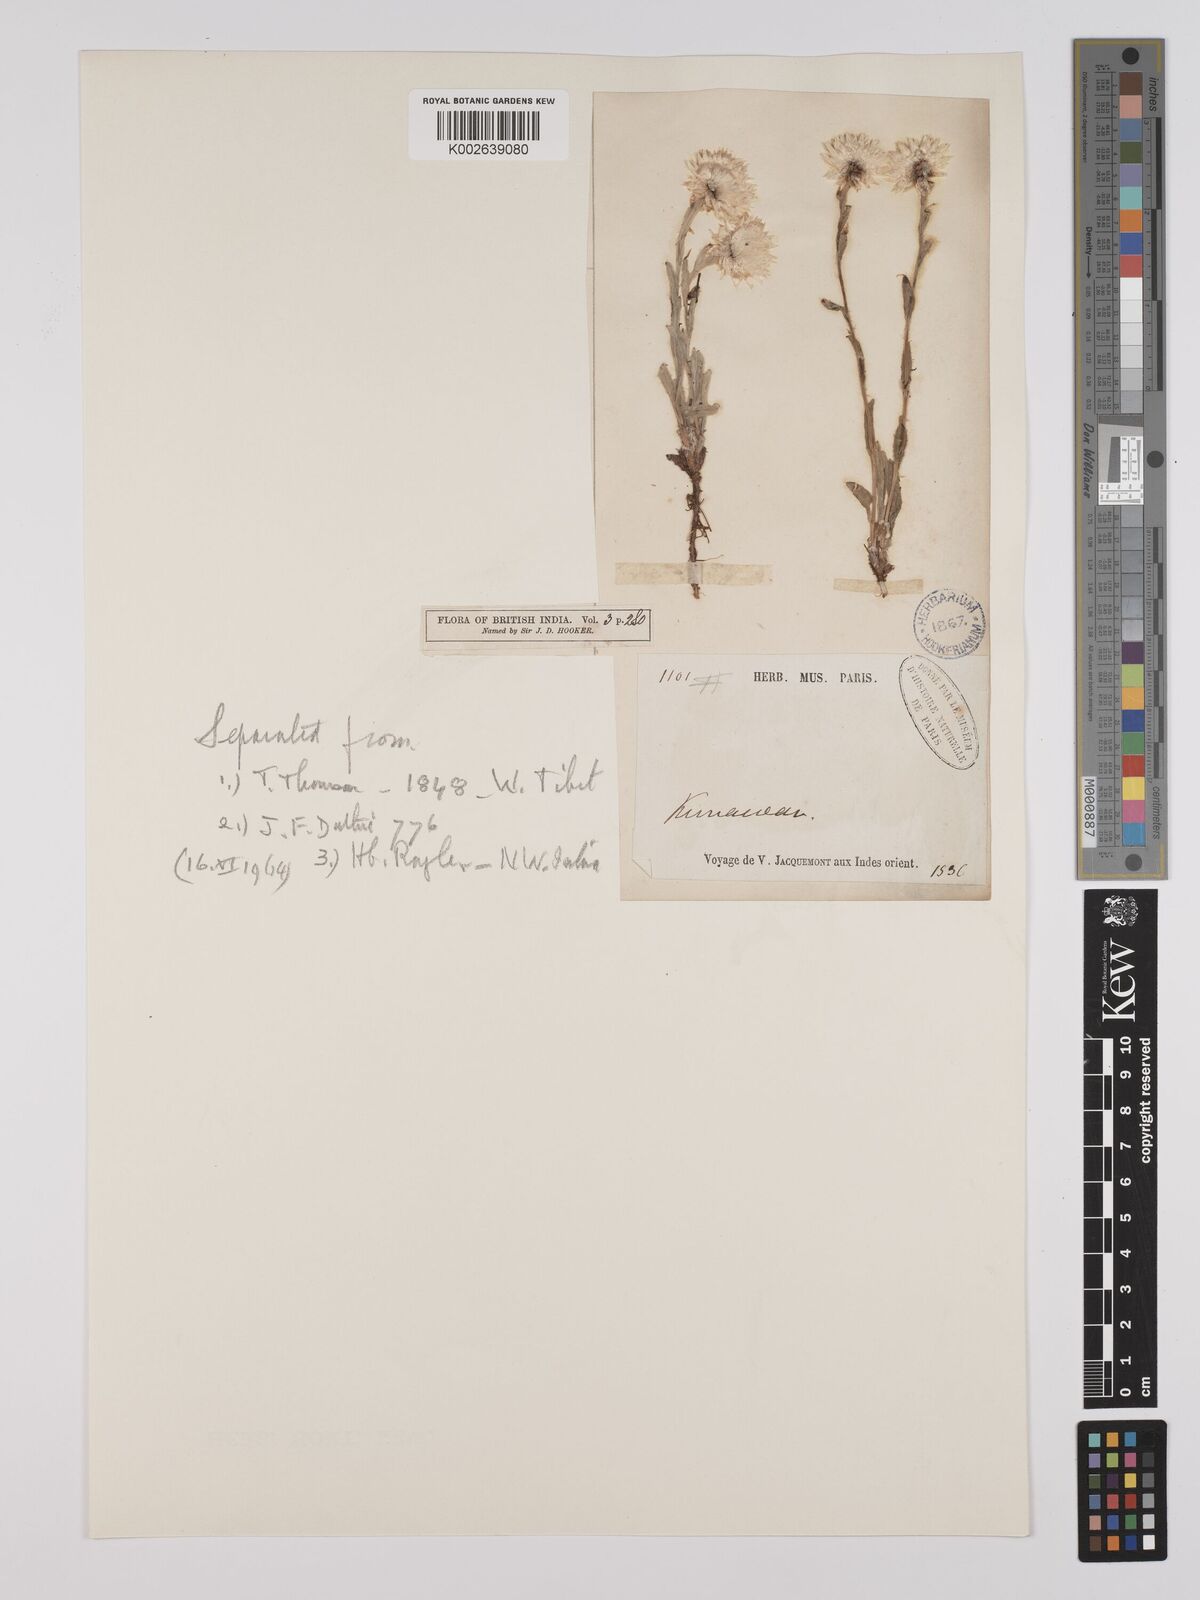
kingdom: Plantae
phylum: Tracheophyta
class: Magnoliopsida
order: Asterales
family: Asteraceae
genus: Anaphalis
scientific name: Anaphalis nepalensis
